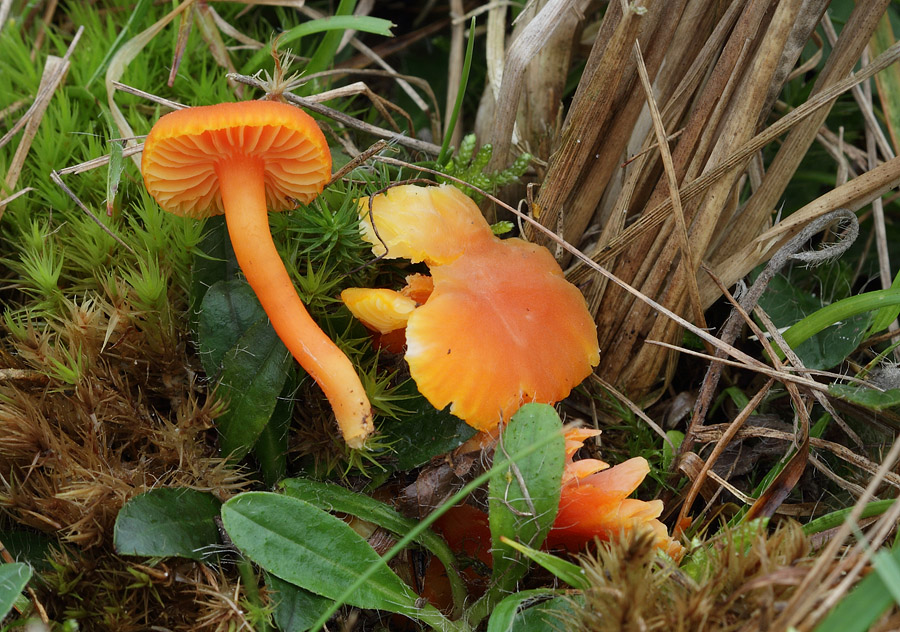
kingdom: Fungi
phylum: Basidiomycota
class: Agaricomycetes
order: Agaricales
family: Hygrophoraceae
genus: Hygrocybe
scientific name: Hygrocybe miniata
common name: mønje-vokshat
